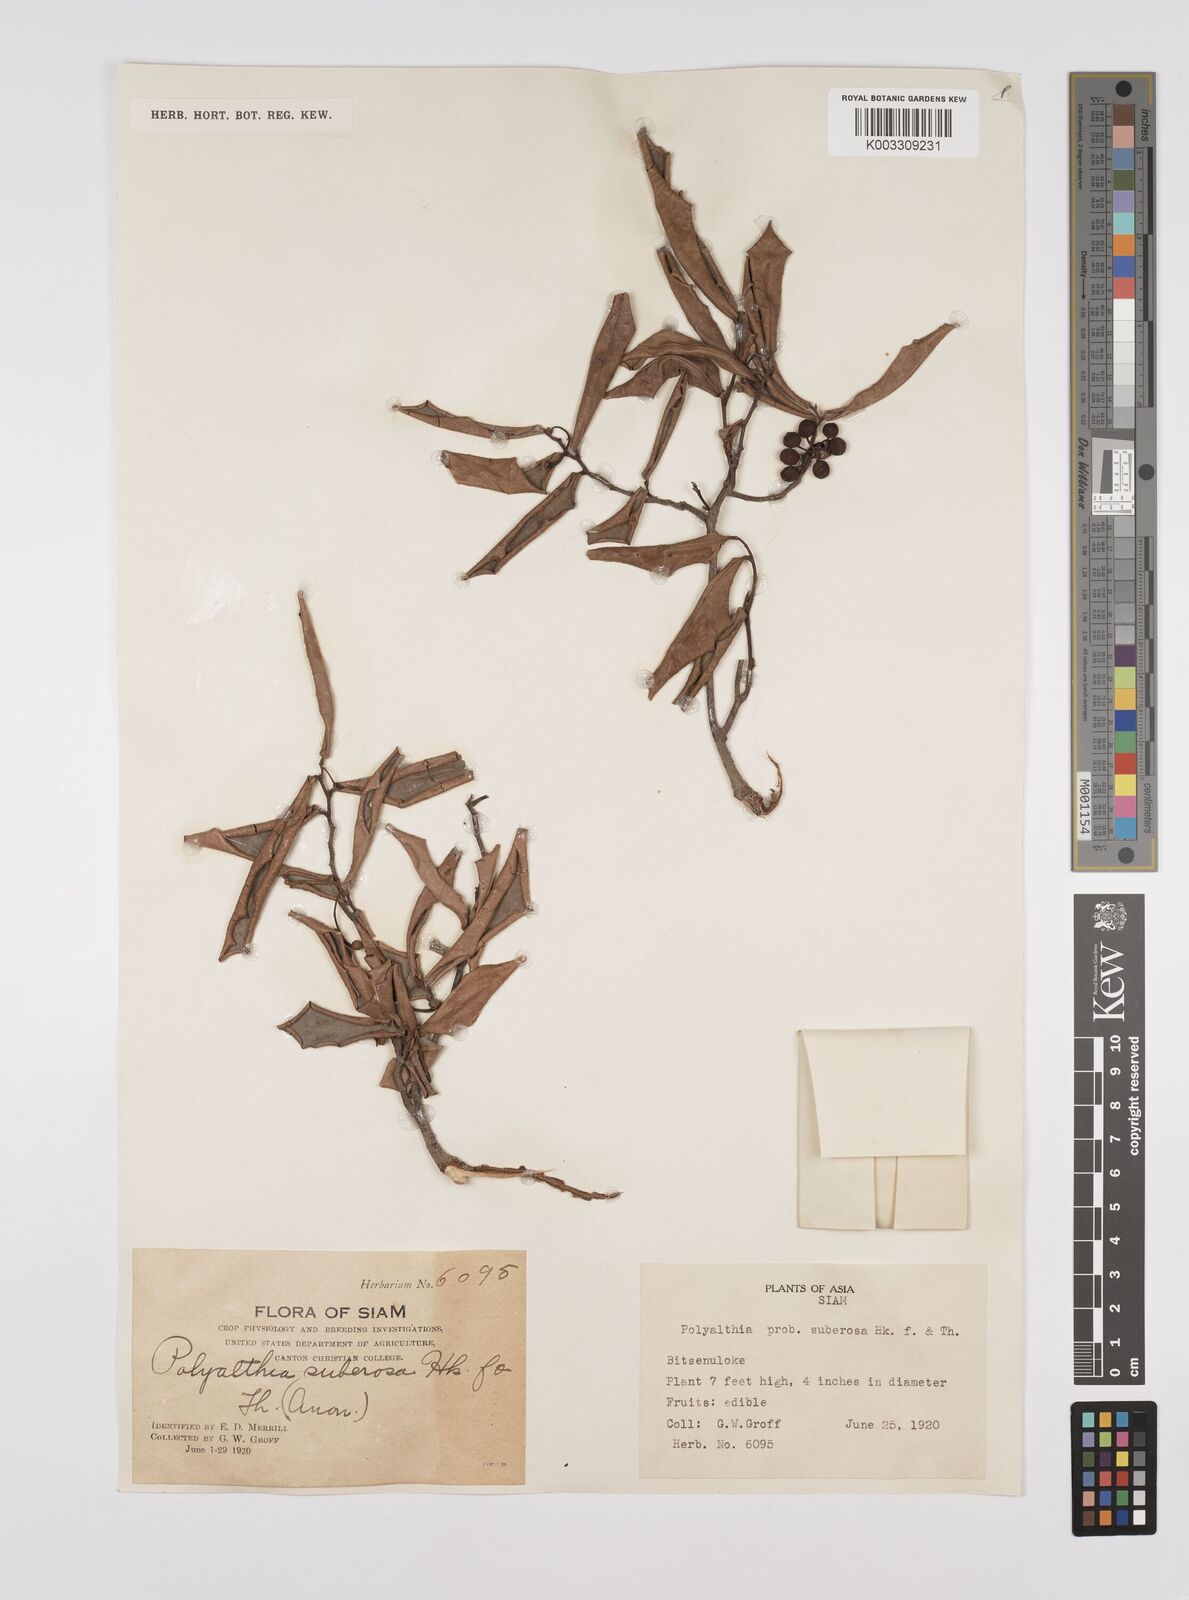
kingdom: Plantae
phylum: Tracheophyta
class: Magnoliopsida
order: Magnoliales
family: Annonaceae
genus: Polyalthia
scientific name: Polyalthia suberosa
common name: Polyalthia plant
